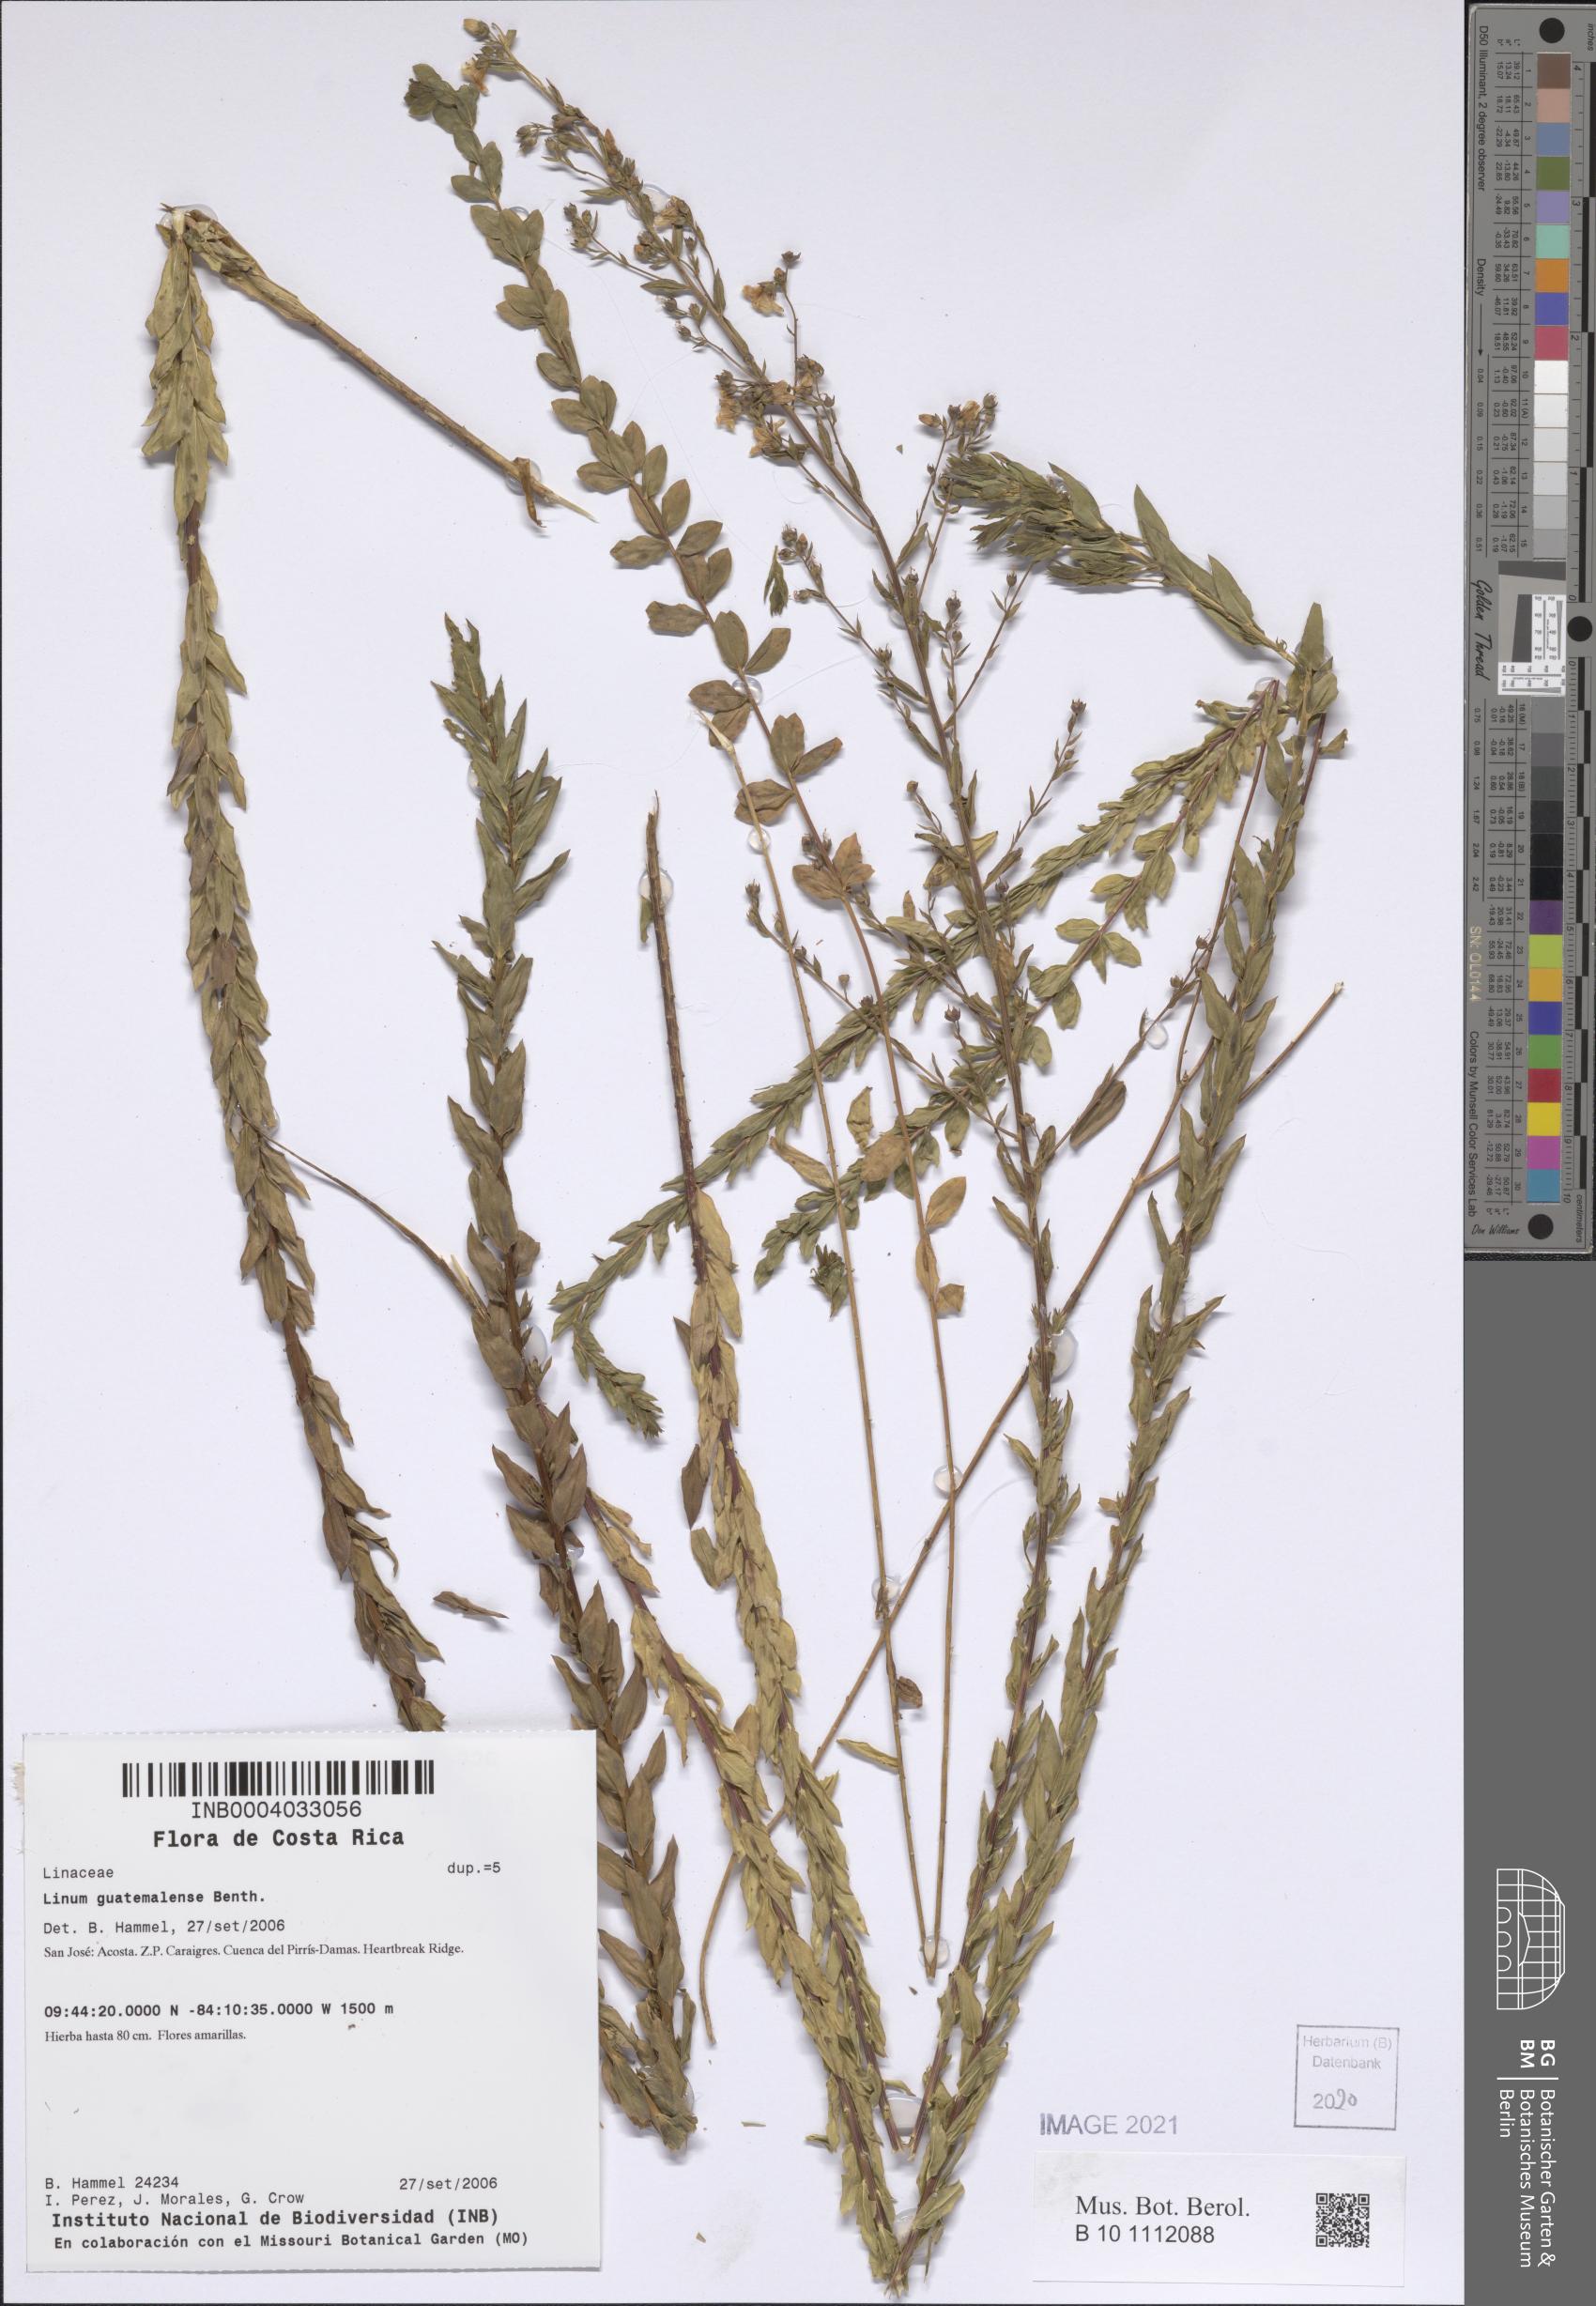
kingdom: Plantae
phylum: Tracheophyta
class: Magnoliopsida
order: Malpighiales
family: Linaceae
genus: Linum
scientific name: Linum guatemalense
